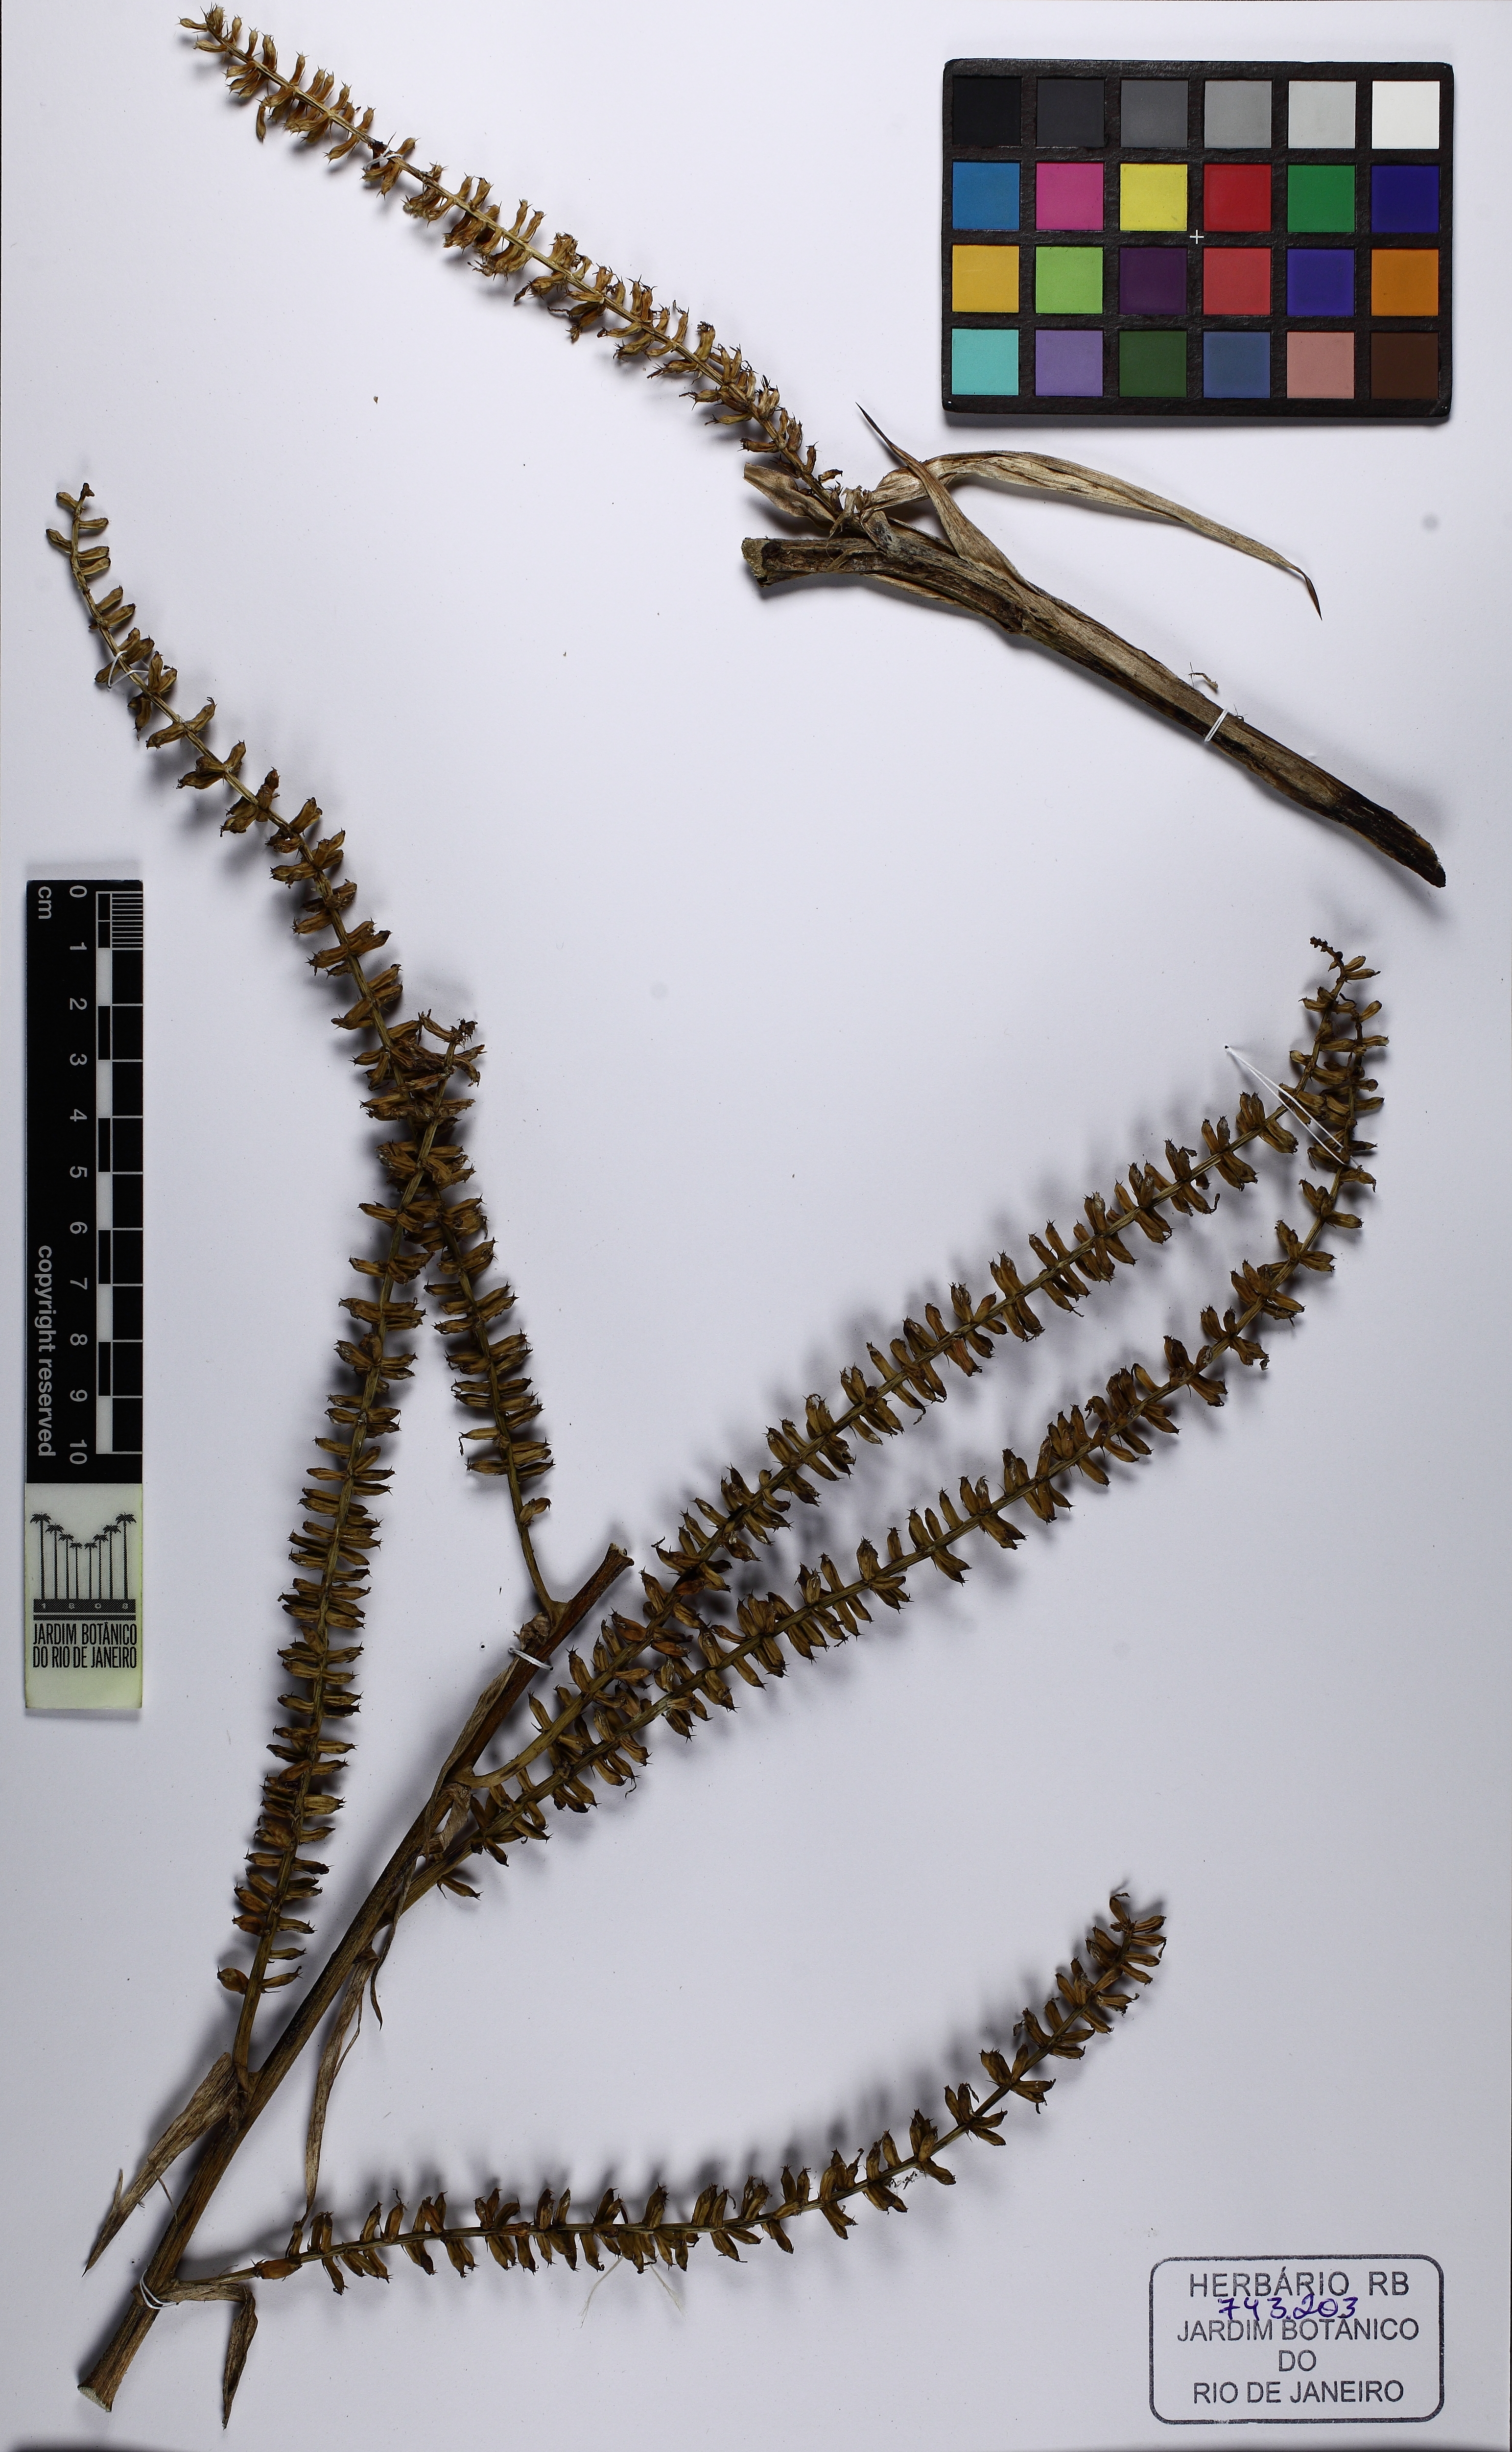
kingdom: Plantae
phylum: Tracheophyta
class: Liliopsida
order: Poales
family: Bromeliaceae
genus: Wittmackia
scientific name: Wittmackia patentissima
